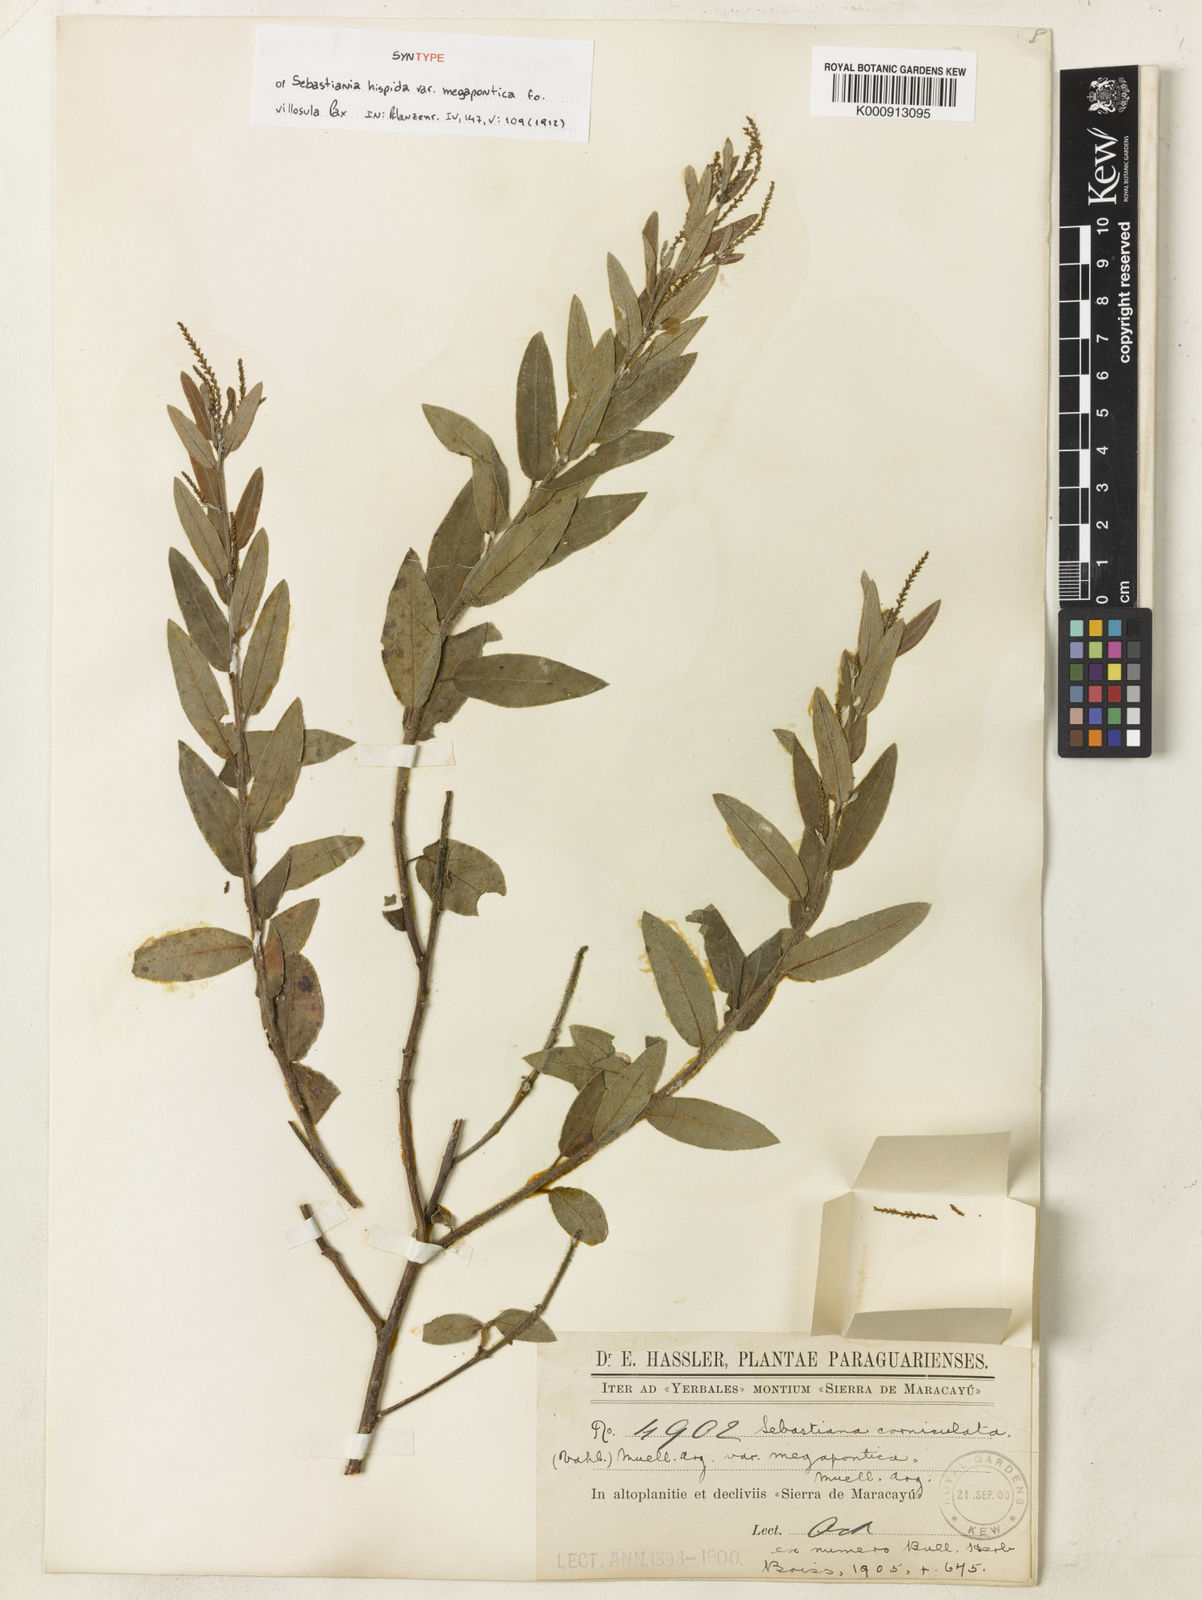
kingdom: Plantae
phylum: Tracheophyta
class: Magnoliopsida
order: Malpighiales
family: Euphorbiaceae
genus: Microstachys
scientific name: Microstachys hispida
